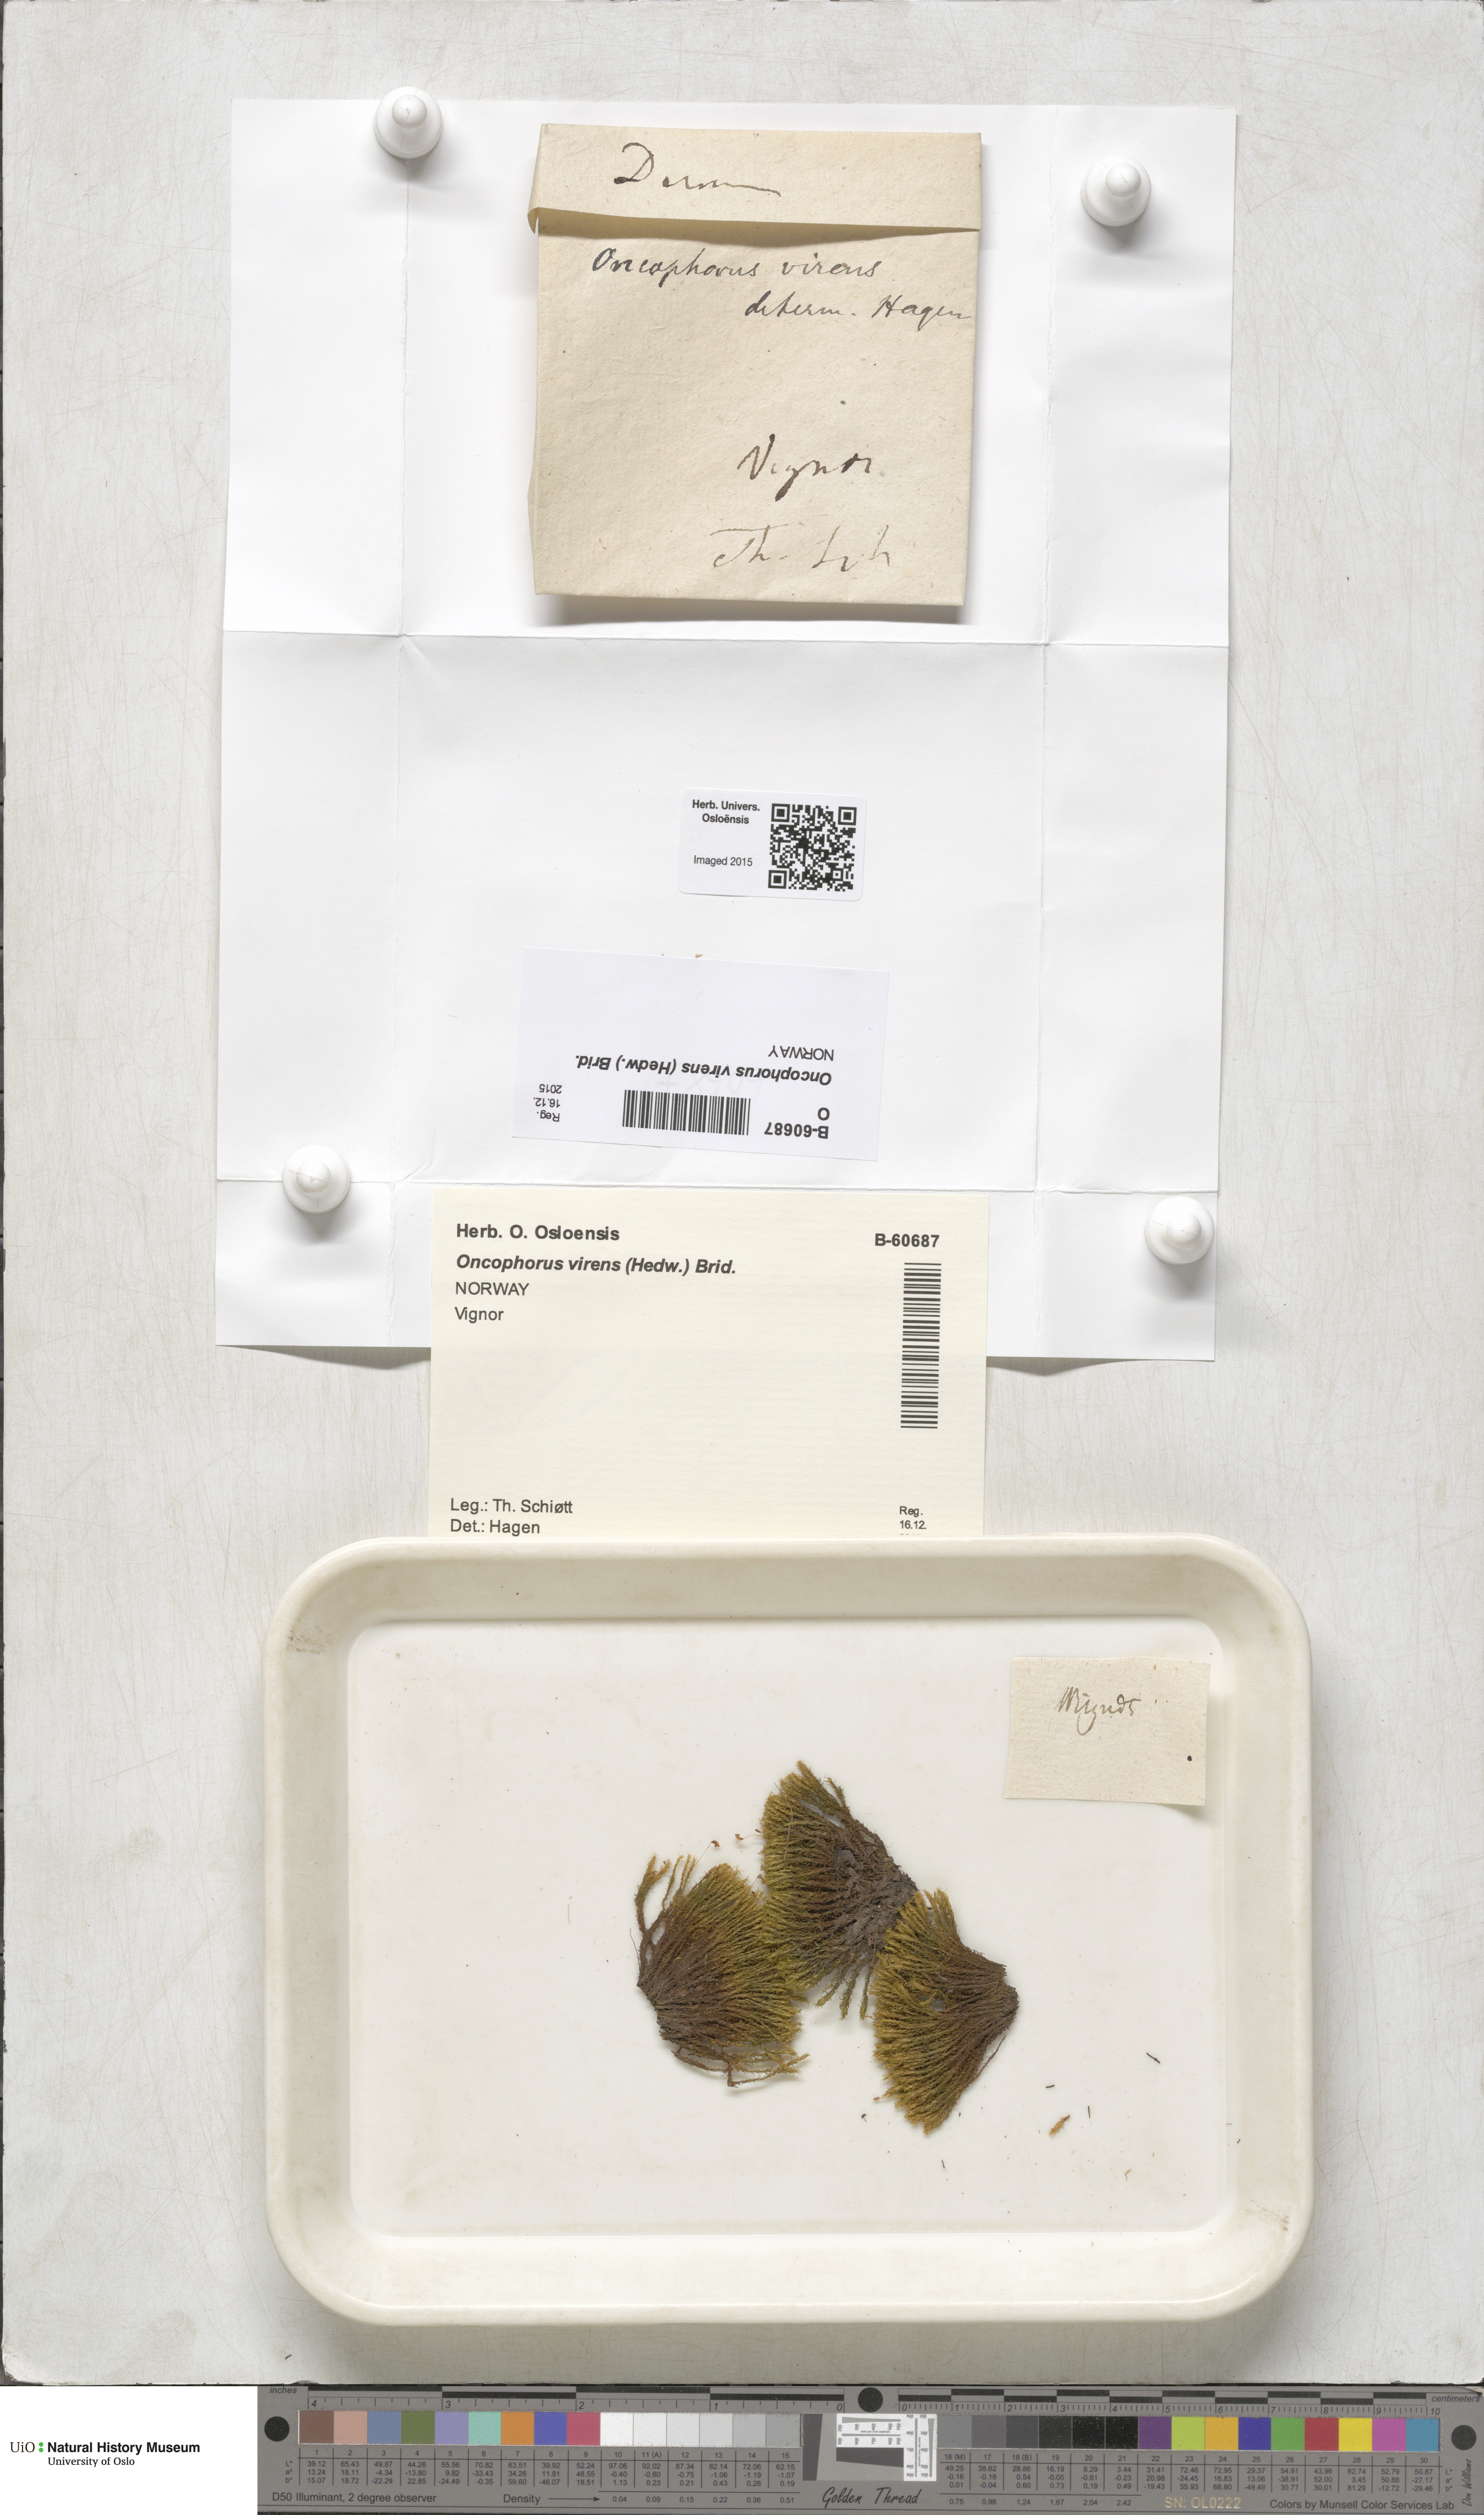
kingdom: Plantae
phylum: Bryophyta
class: Bryopsida
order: Dicranales
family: Rhabdoweisiaceae
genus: Oncophorus
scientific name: Oncophorus virens
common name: Green spur moss
